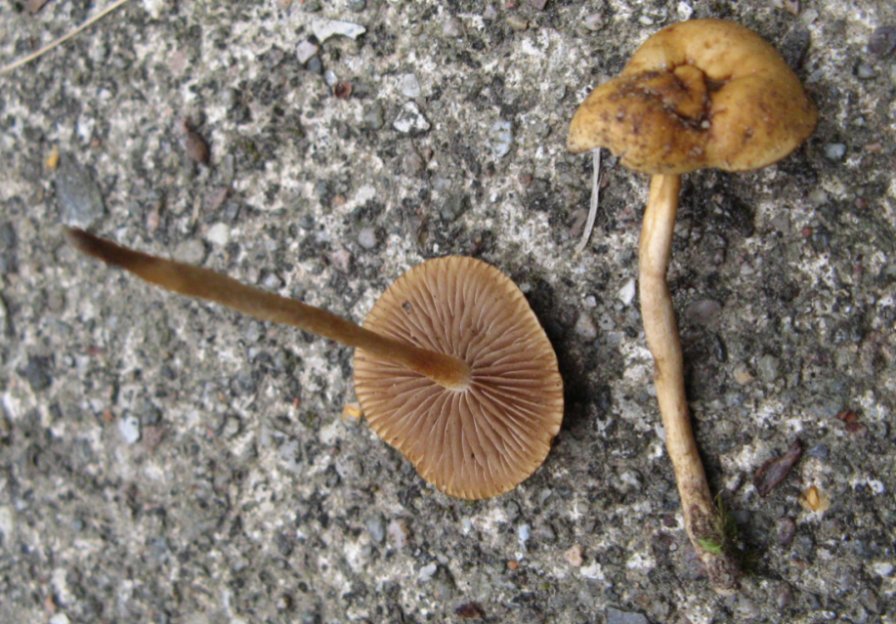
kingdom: Fungi
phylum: Basidiomycota
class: Agaricomycetes
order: Agaricales
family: Strophariaceae
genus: Agrocybe
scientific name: Agrocybe pediades
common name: almindelig agerhat
